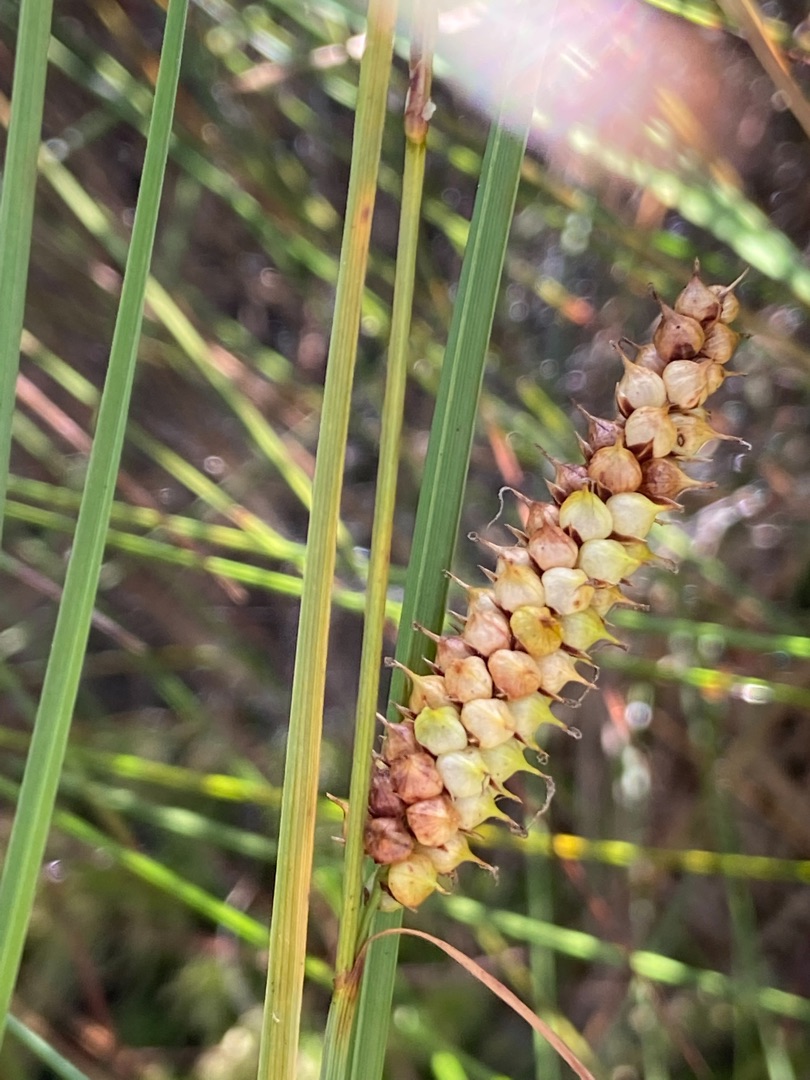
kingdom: Plantae
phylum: Tracheophyta
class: Liliopsida
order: Poales
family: Cyperaceae
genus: Carex
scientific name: Carex rostrata
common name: Næb-star
